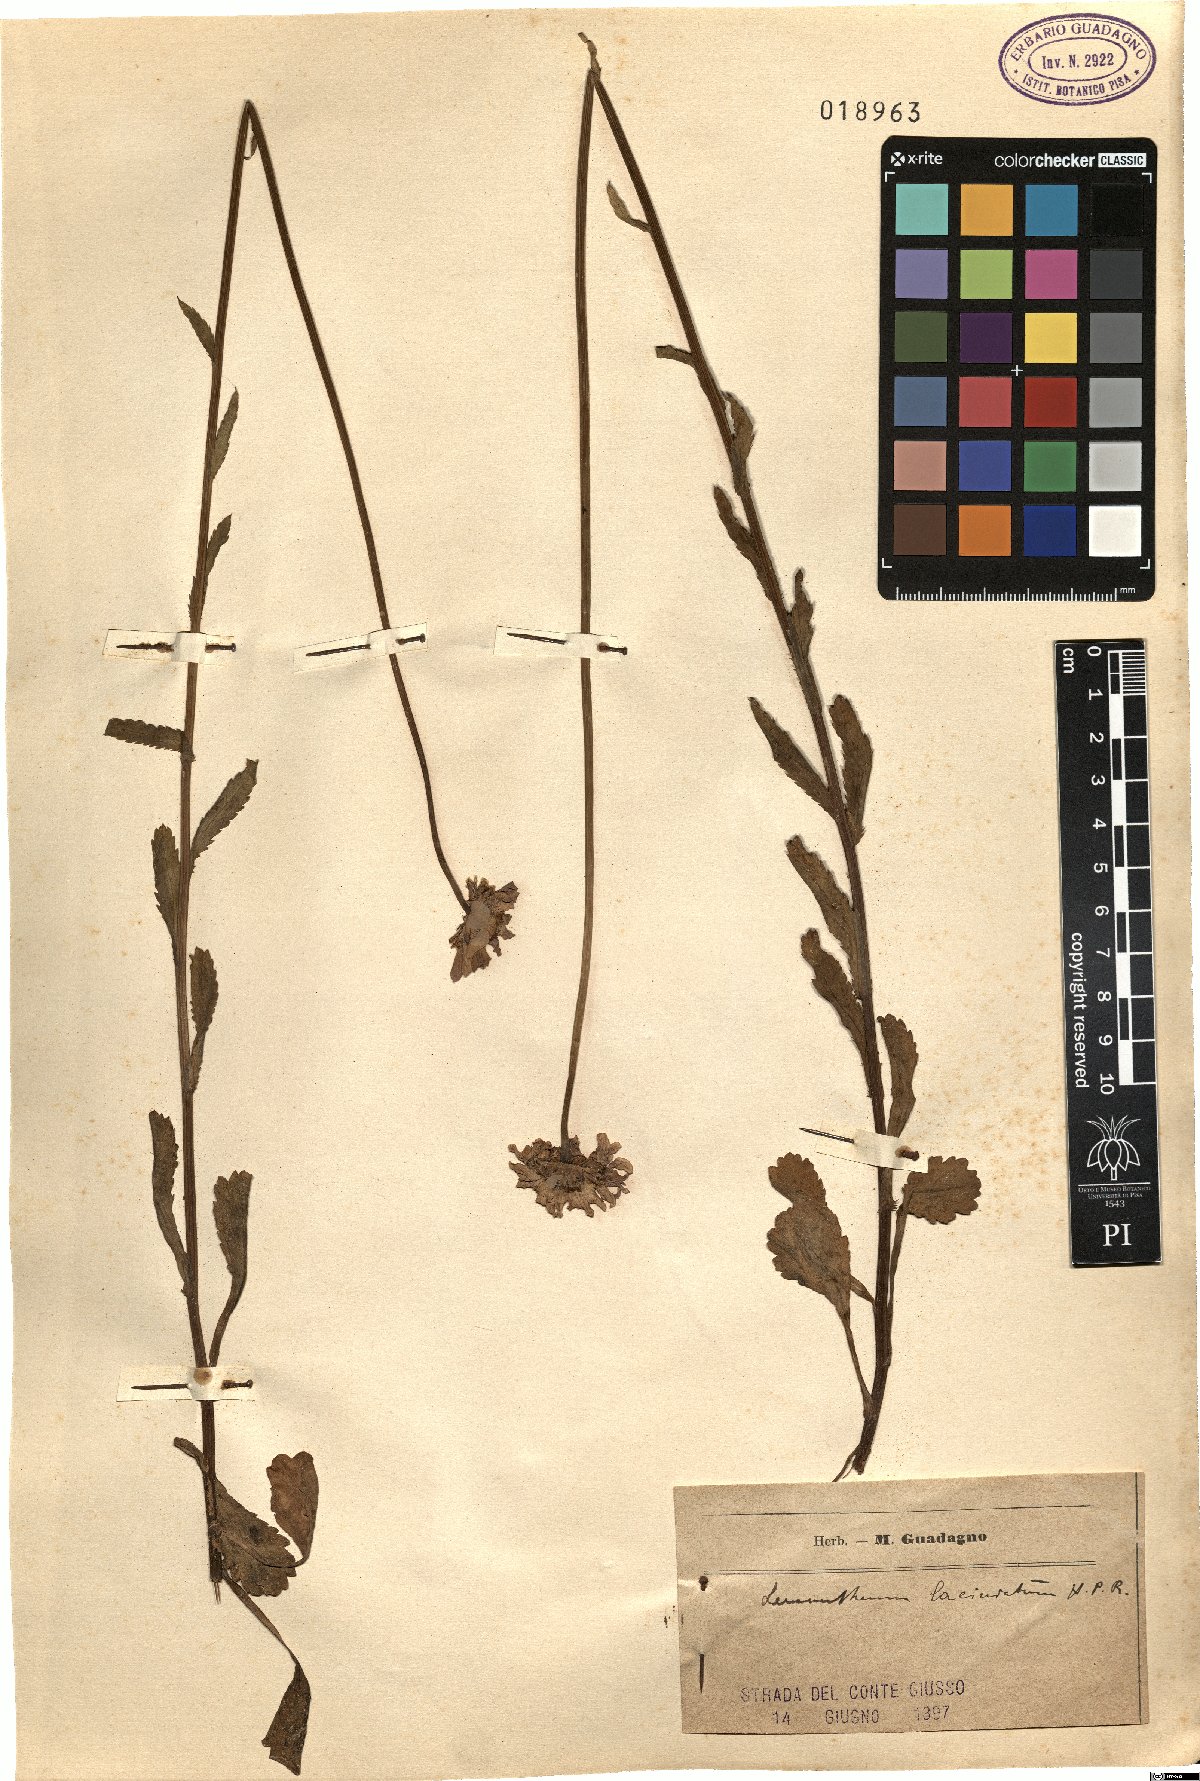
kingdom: Plantae
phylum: Tracheophyta
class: Magnoliopsida
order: Asterales
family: Asteraceae
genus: Leucanthemum
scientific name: Leucanthemum laciniatum
